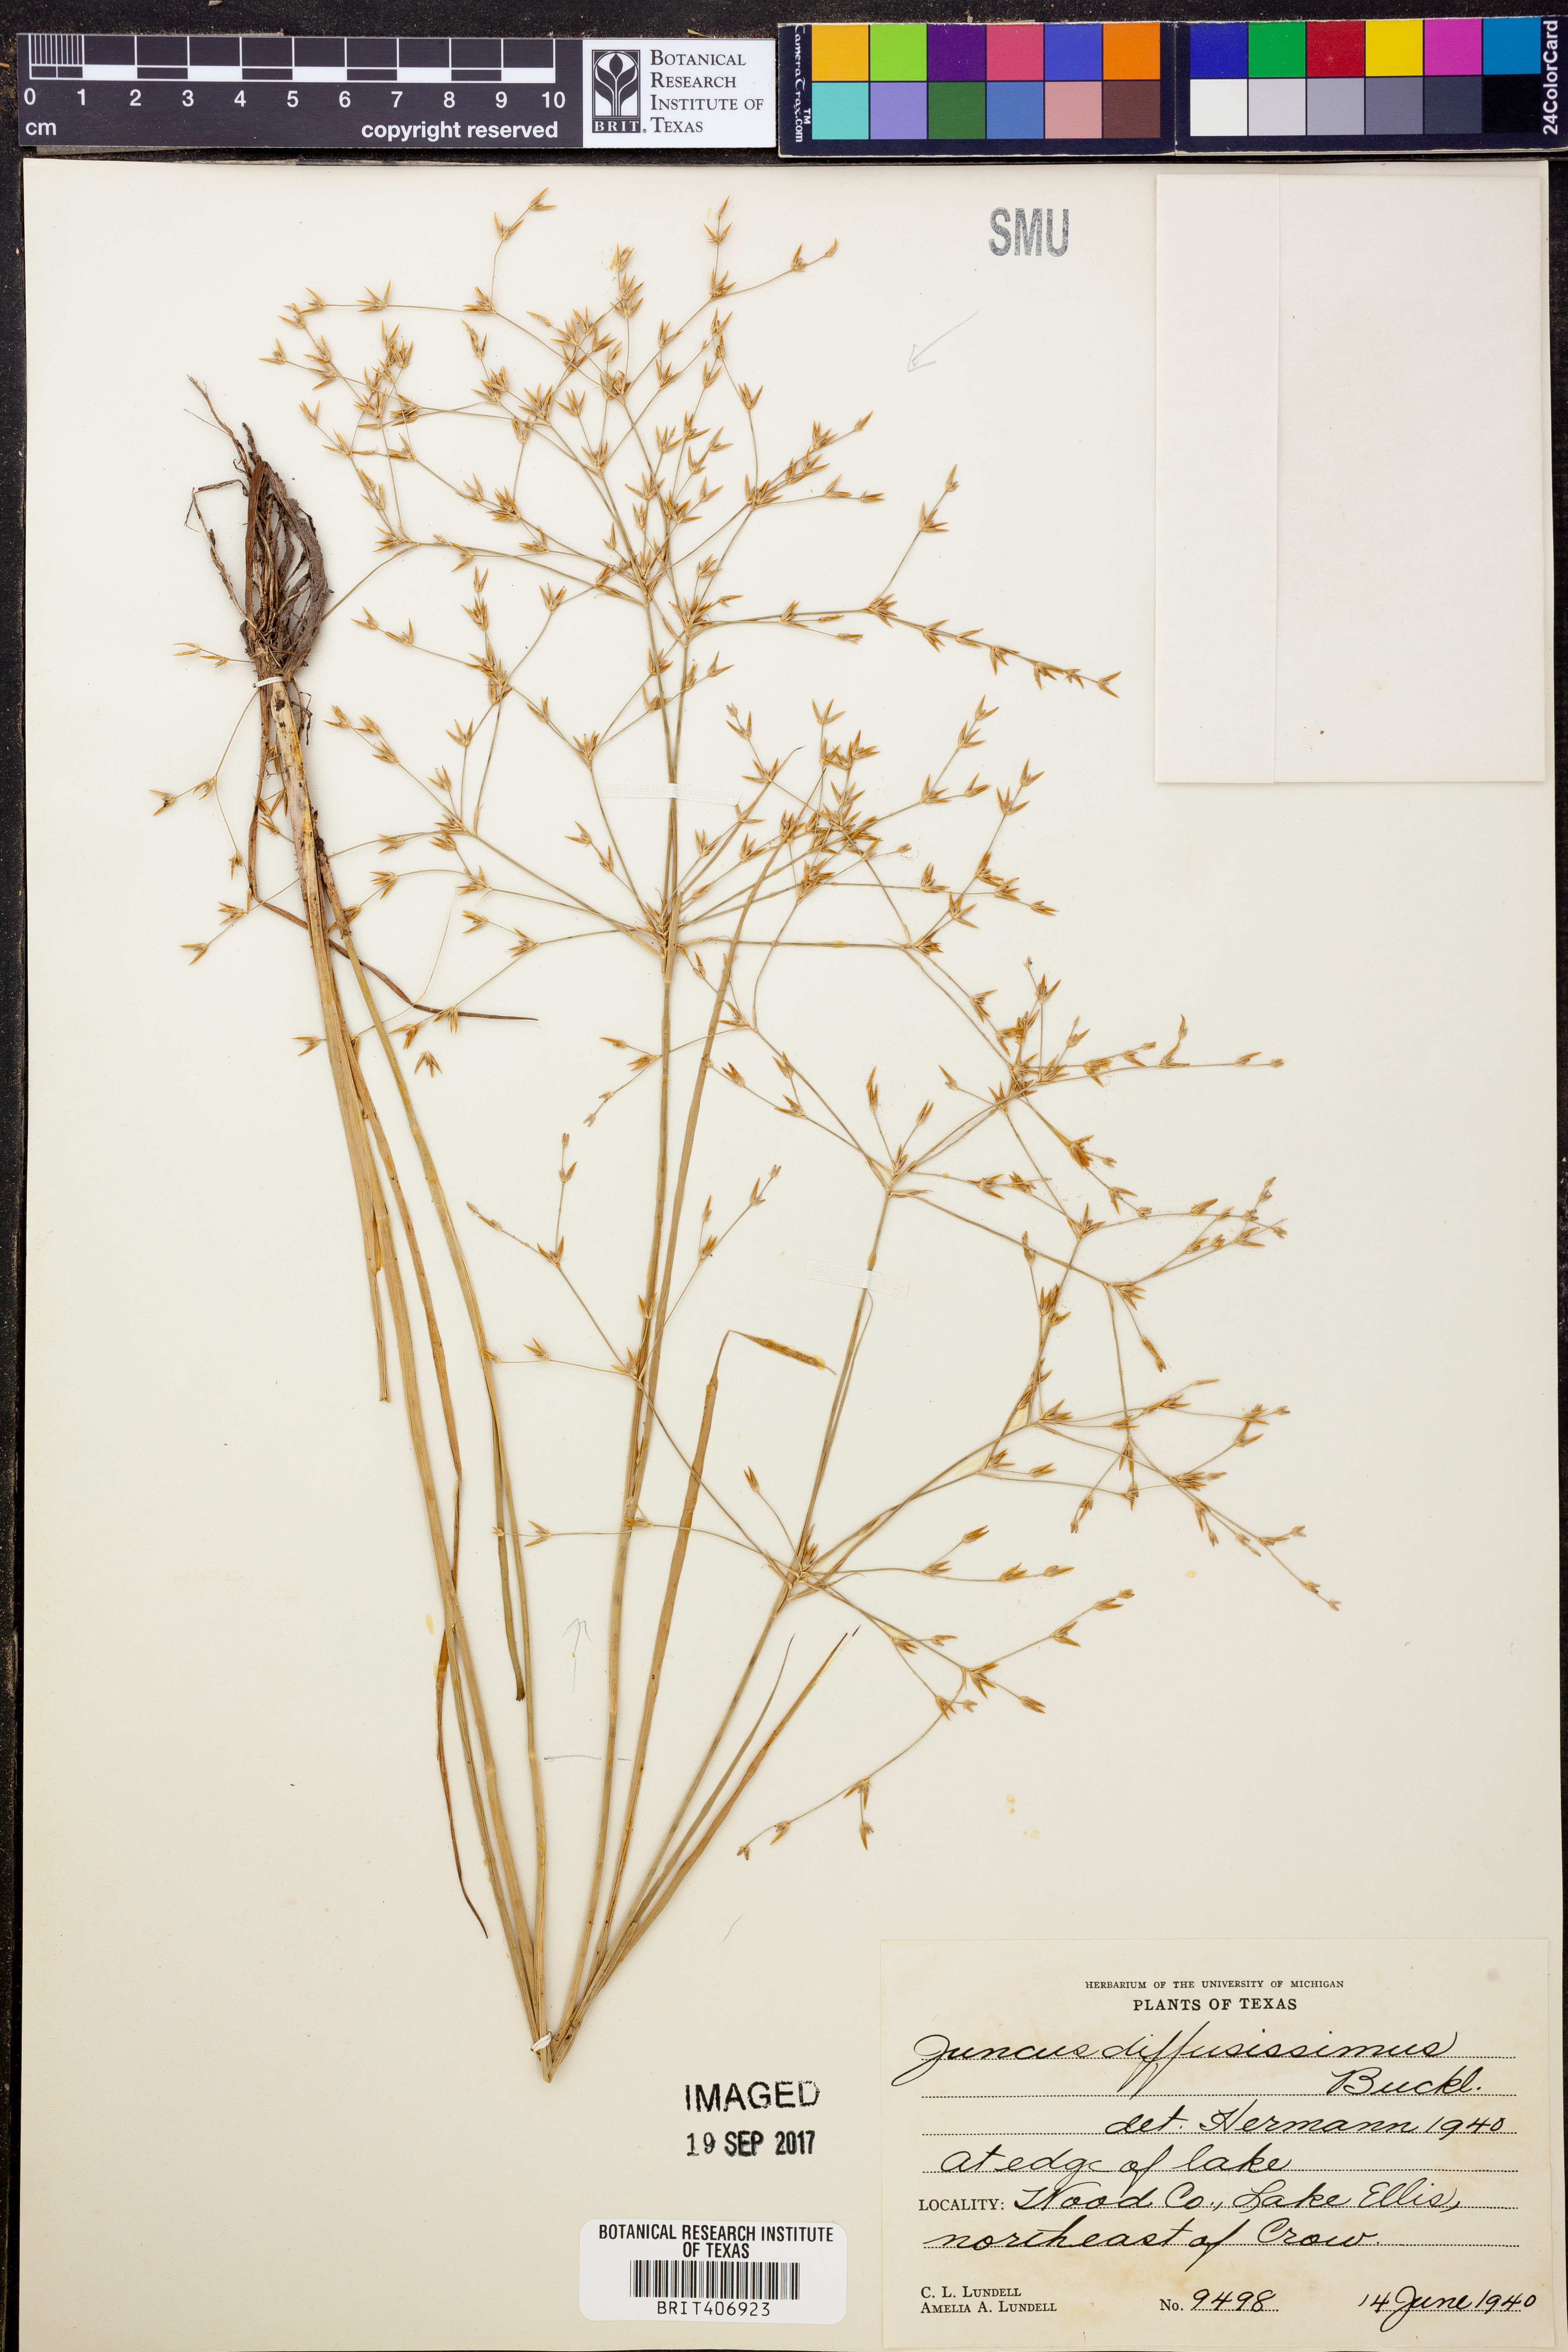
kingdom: Plantae
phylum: Tracheophyta
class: Liliopsida
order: Poales
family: Juncaceae
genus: Juncus
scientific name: Juncus diffusissimus
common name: Slimpod rush
